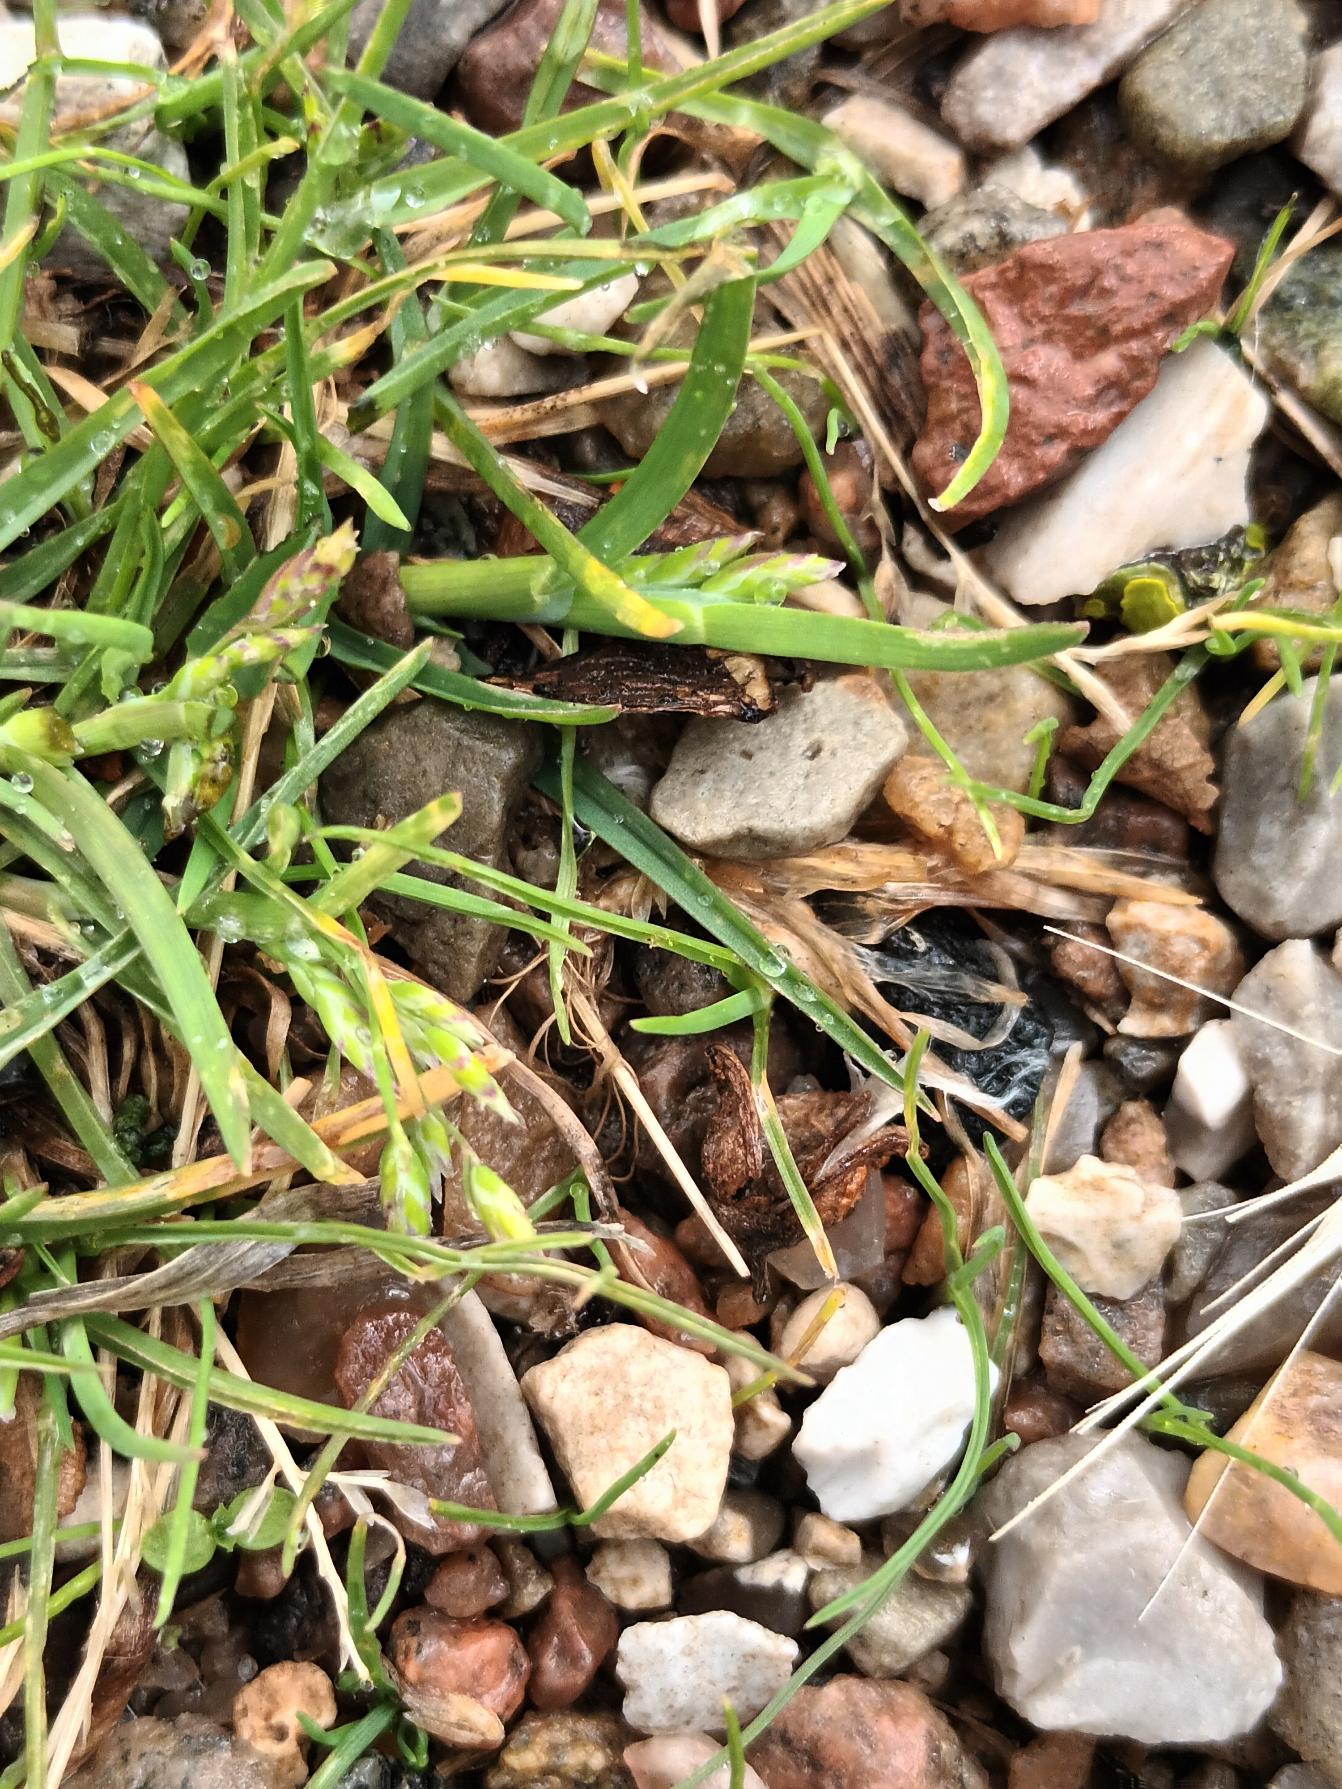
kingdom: Plantae
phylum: Tracheophyta
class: Liliopsida
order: Poales
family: Poaceae
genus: Poa
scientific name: Poa annua
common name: Enårig rapgræs
